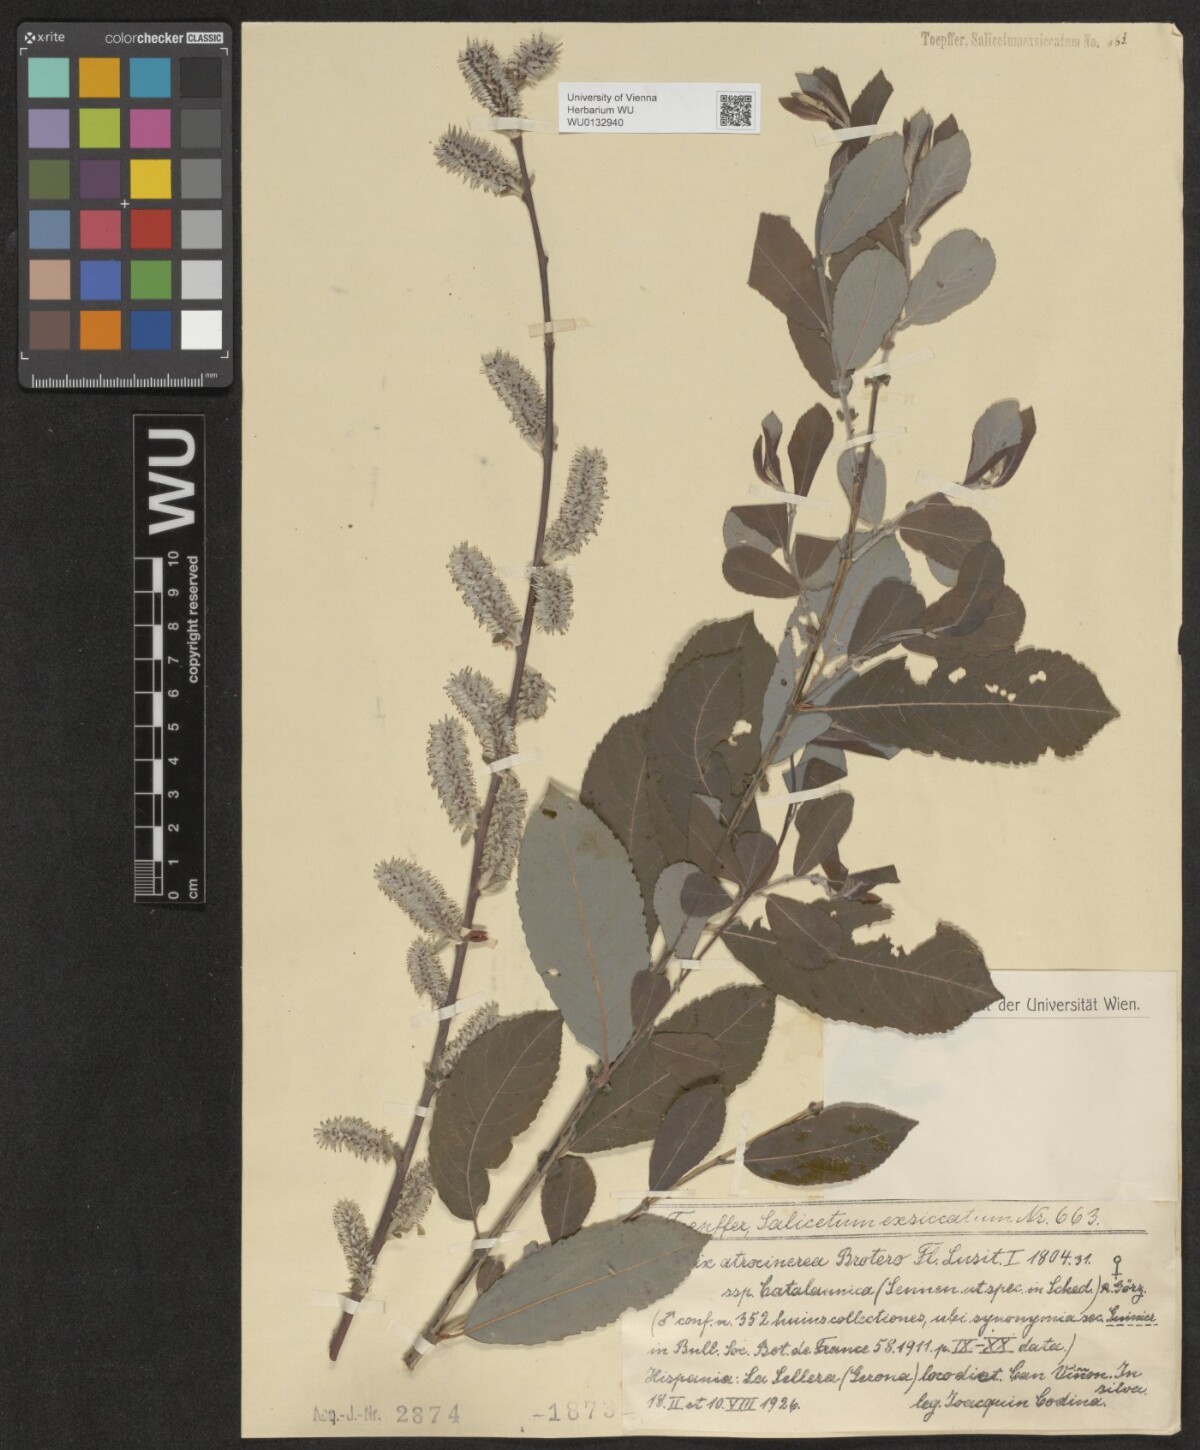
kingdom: Plantae
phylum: Tracheophyta
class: Magnoliopsida
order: Malpighiales
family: Salicaceae
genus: Salix
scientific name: Salix atrocinerea
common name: Rusty willow
